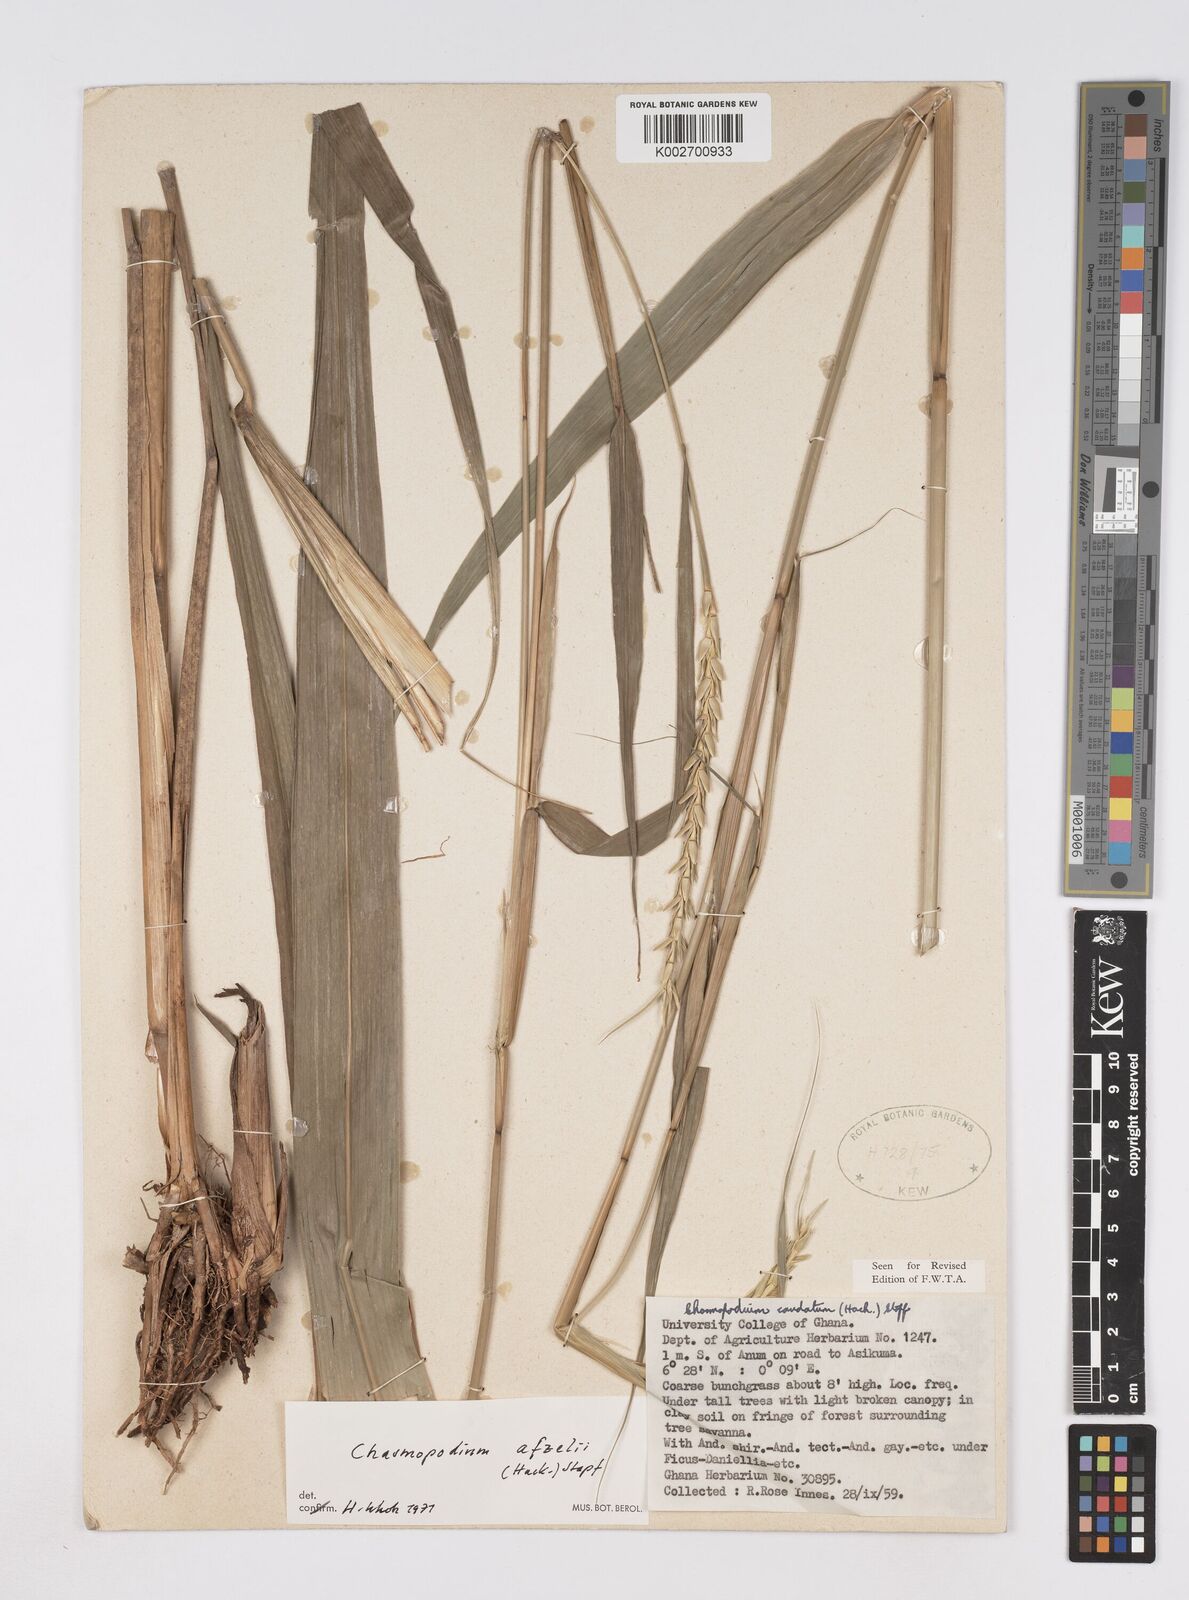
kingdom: Plantae
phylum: Tracheophyta
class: Liliopsida
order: Poales
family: Poaceae
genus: Chasmopodium
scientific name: Chasmopodium afzelii
